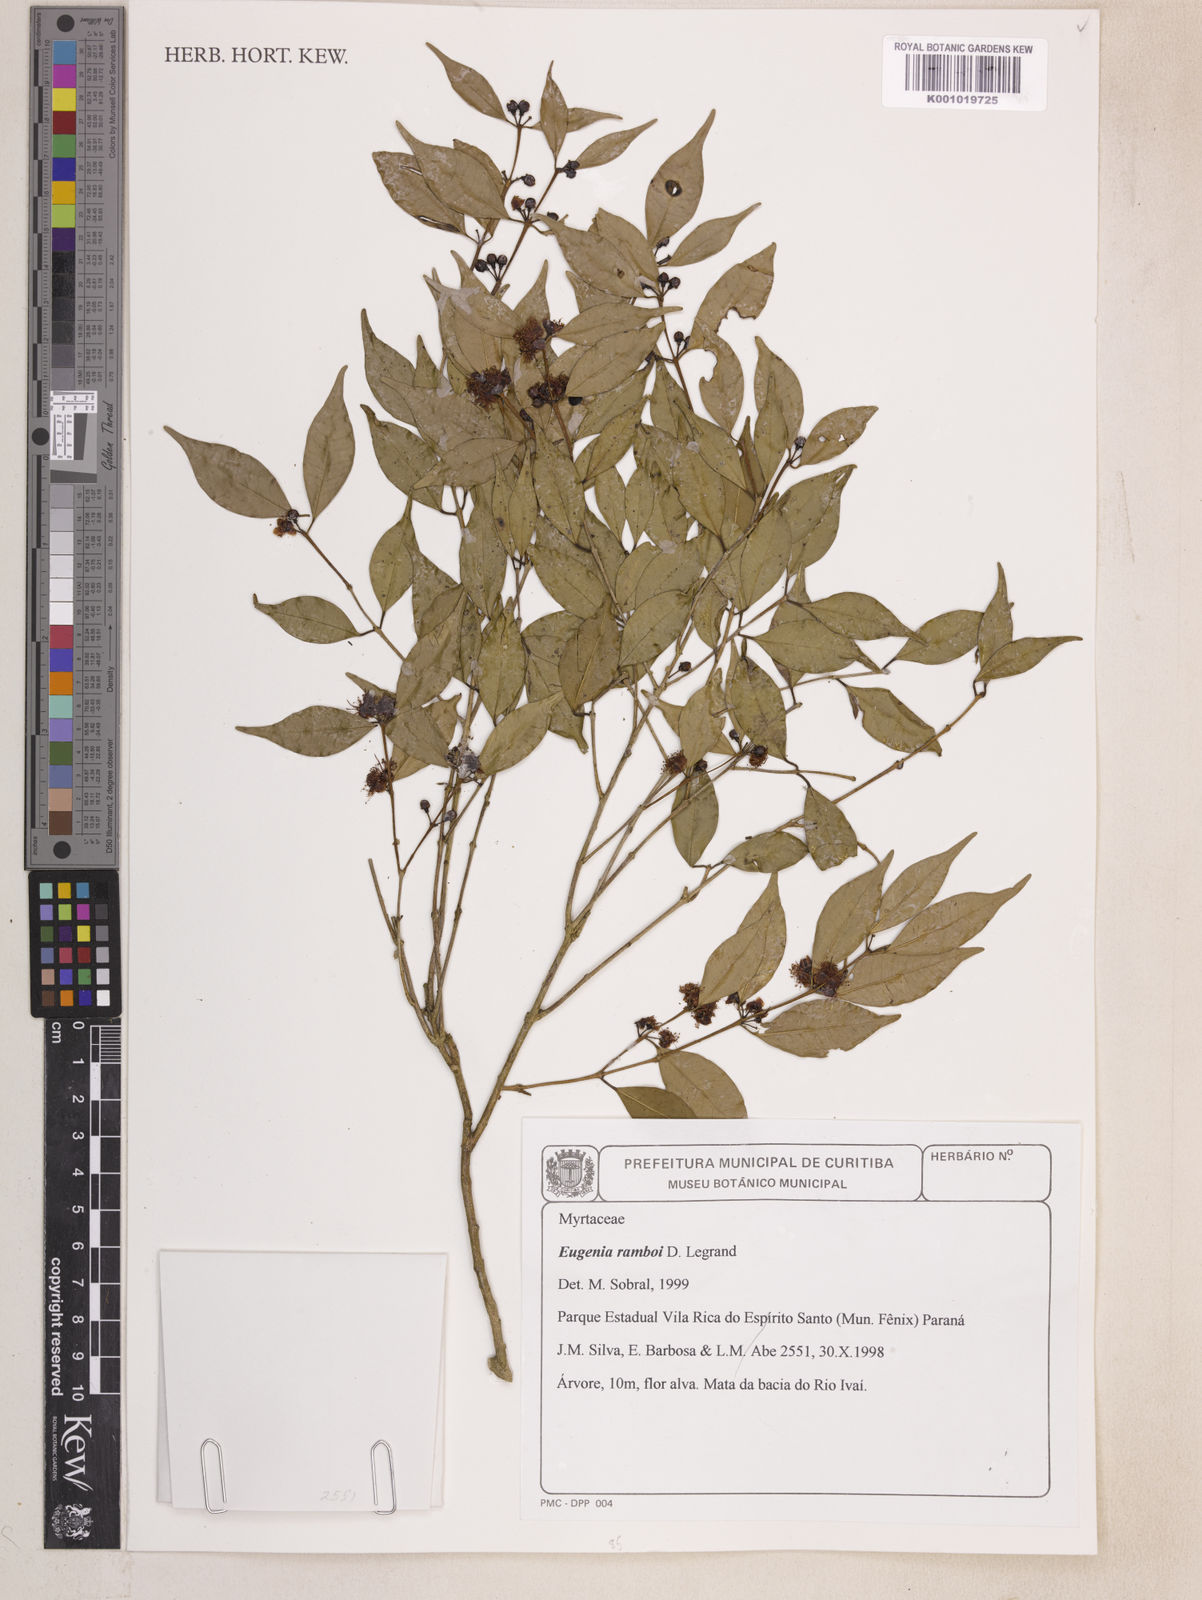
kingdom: Plantae
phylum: Tracheophyta
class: Magnoliopsida
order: Myrtales
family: Myrtaceae
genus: Eugenia
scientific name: Eugenia ramboi
